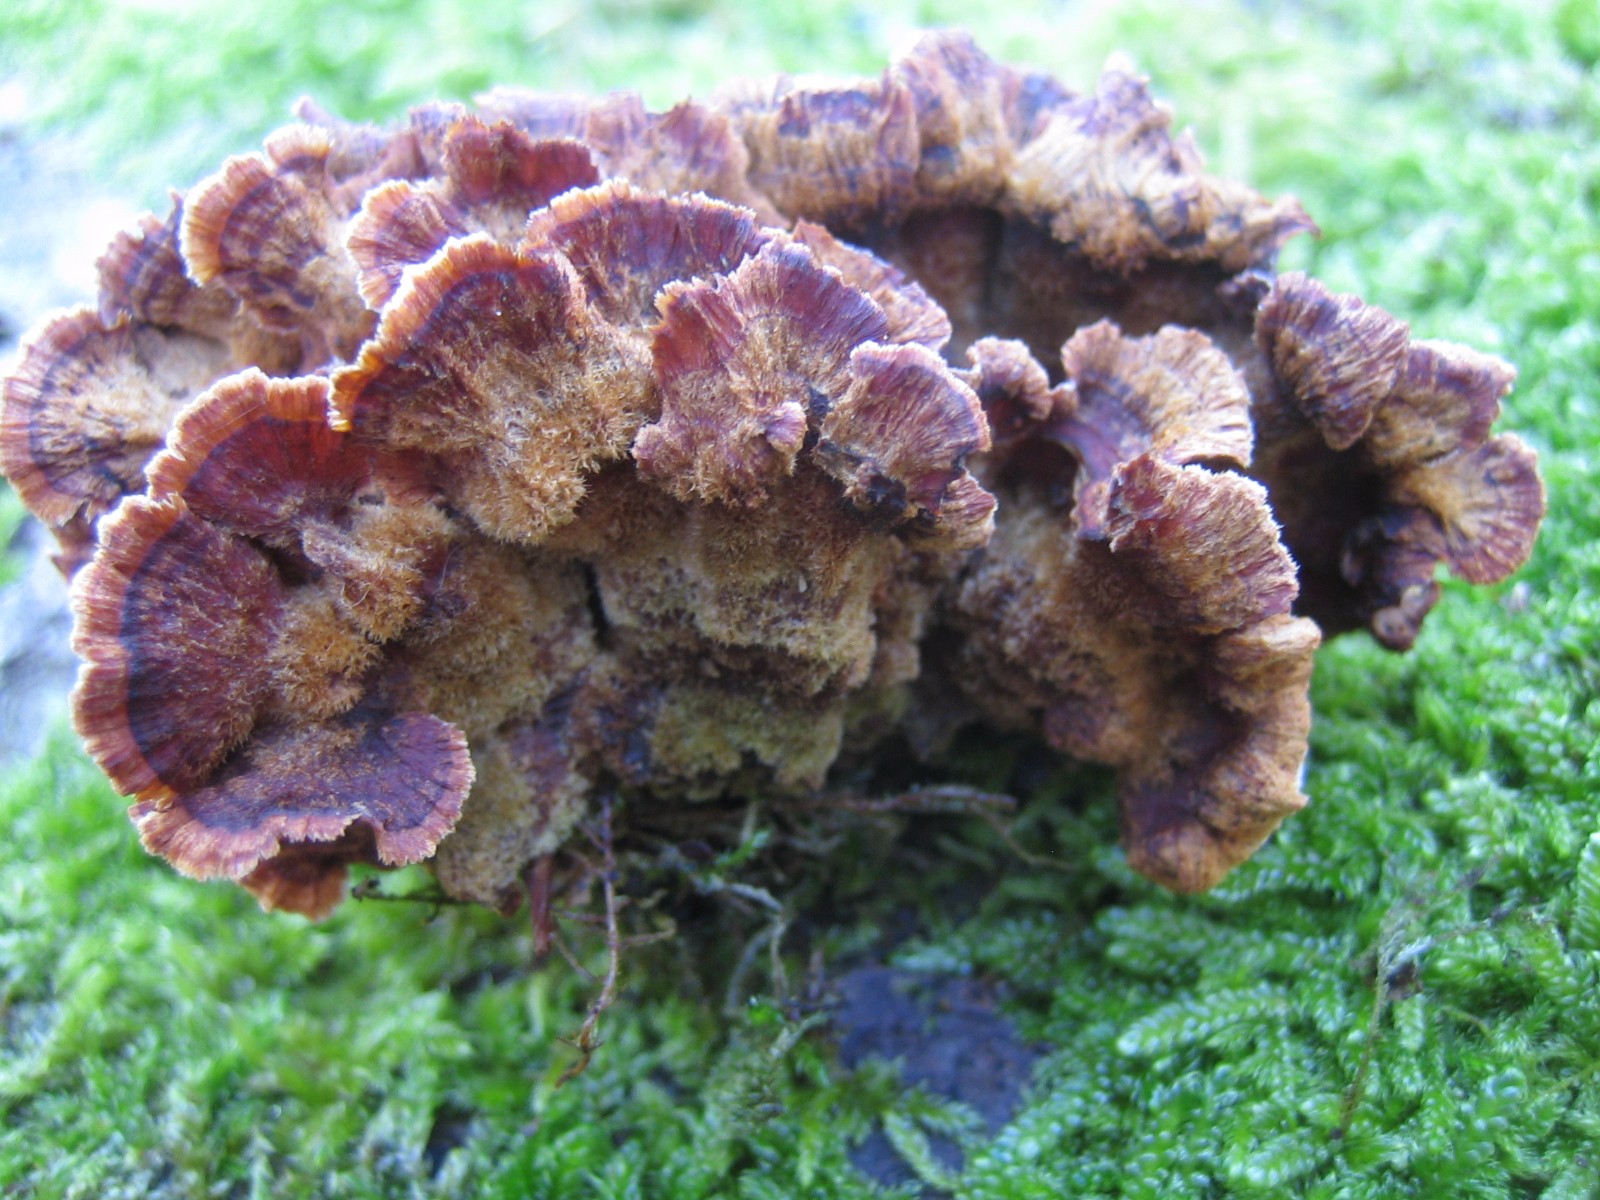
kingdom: Fungi
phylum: Basidiomycota
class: Agaricomycetes
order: Agaricales
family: Cyphellaceae
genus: Chondrostereum
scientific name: Chondrostereum purpureum
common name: purpurlædersvamp
